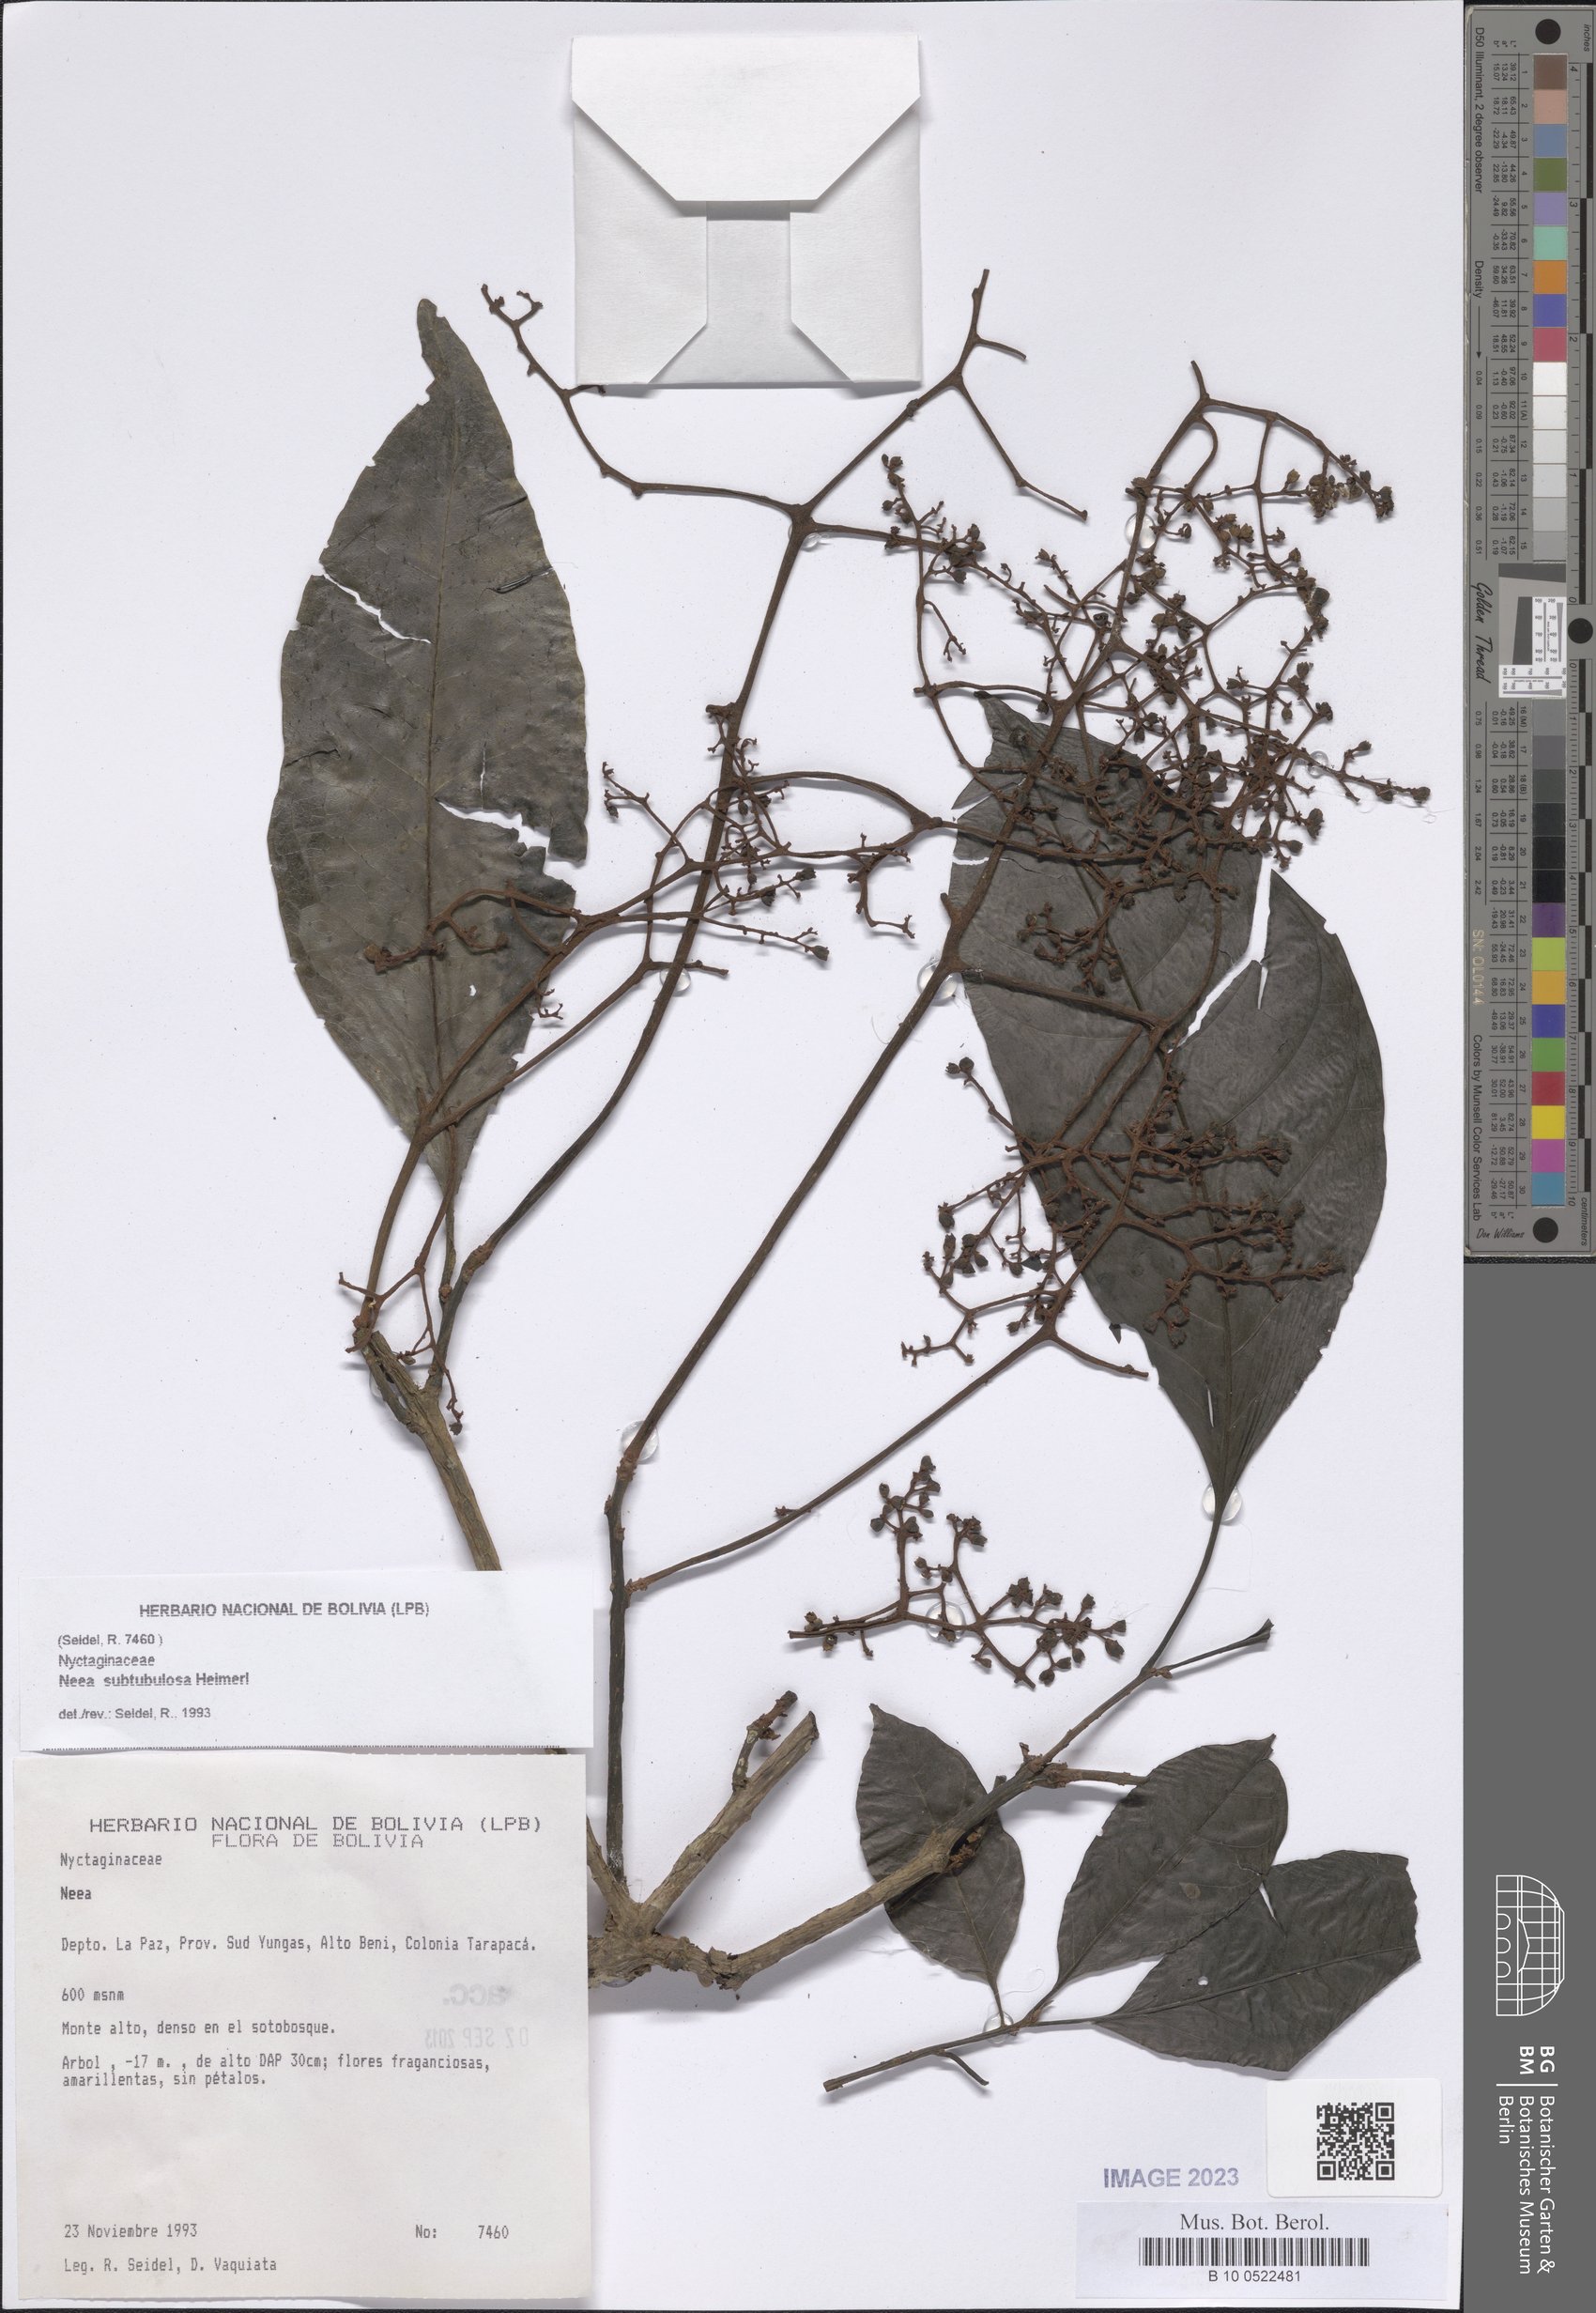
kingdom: Plantae
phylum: Tracheophyta
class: Magnoliopsida
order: Caryophyllales
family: Nyctaginaceae
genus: Neea
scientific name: Neea
